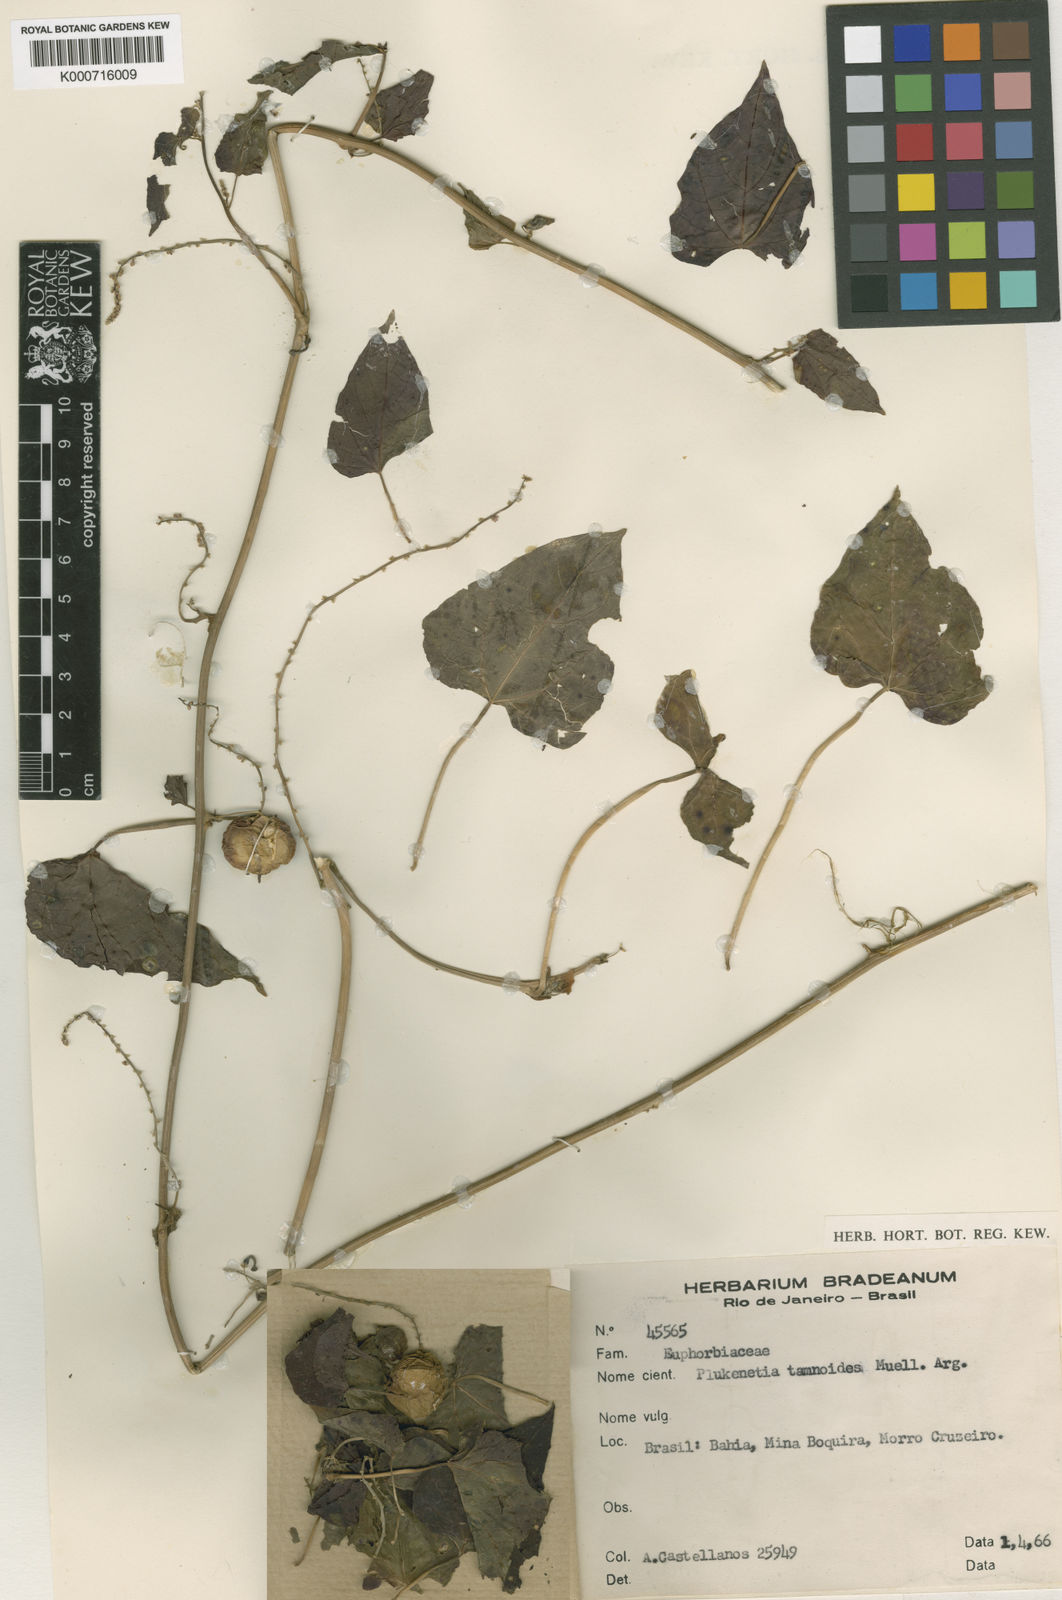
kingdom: Plantae
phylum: Tracheophyta
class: Magnoliopsida
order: Malpighiales
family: Euphorbiaceae
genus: Romanoa
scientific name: Romanoa tamnoides
